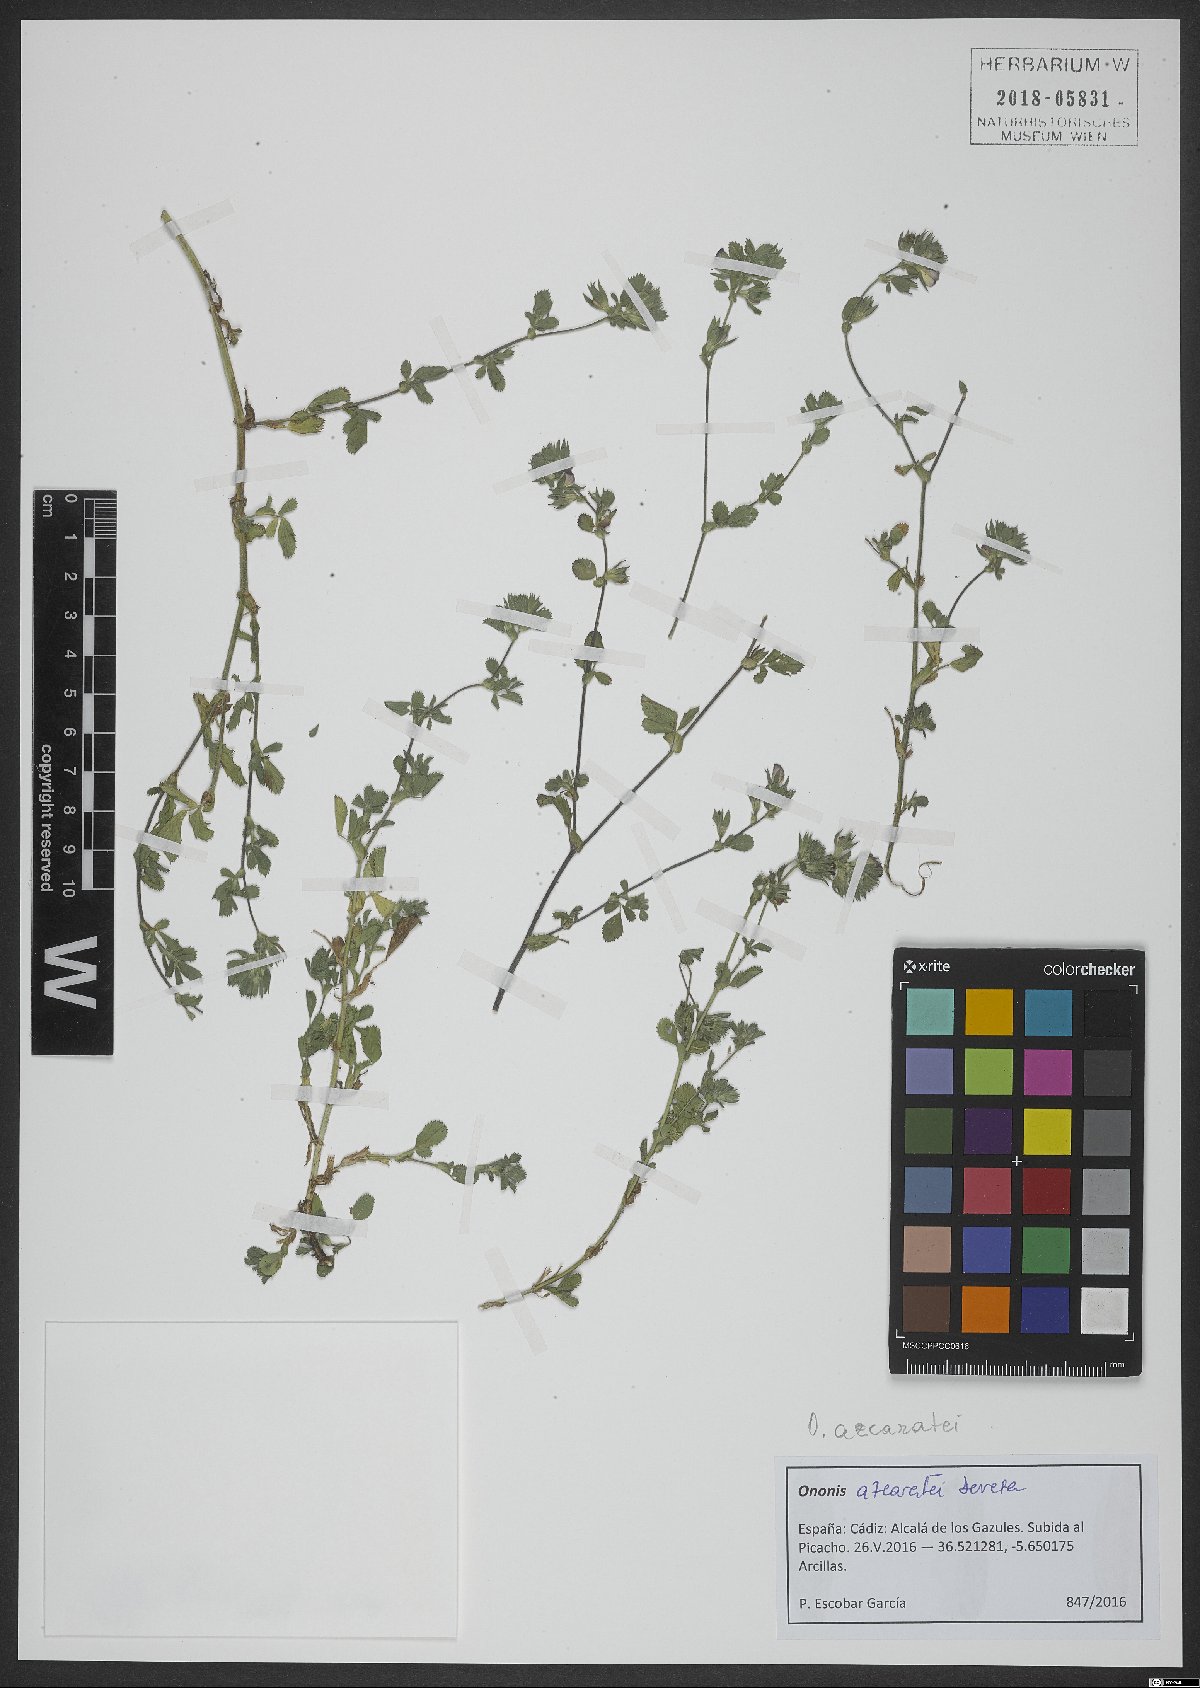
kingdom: Plantae
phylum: Tracheophyta
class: Magnoliopsida
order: Fabales
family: Fabaceae
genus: Ononis
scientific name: Ononis azcaratei
